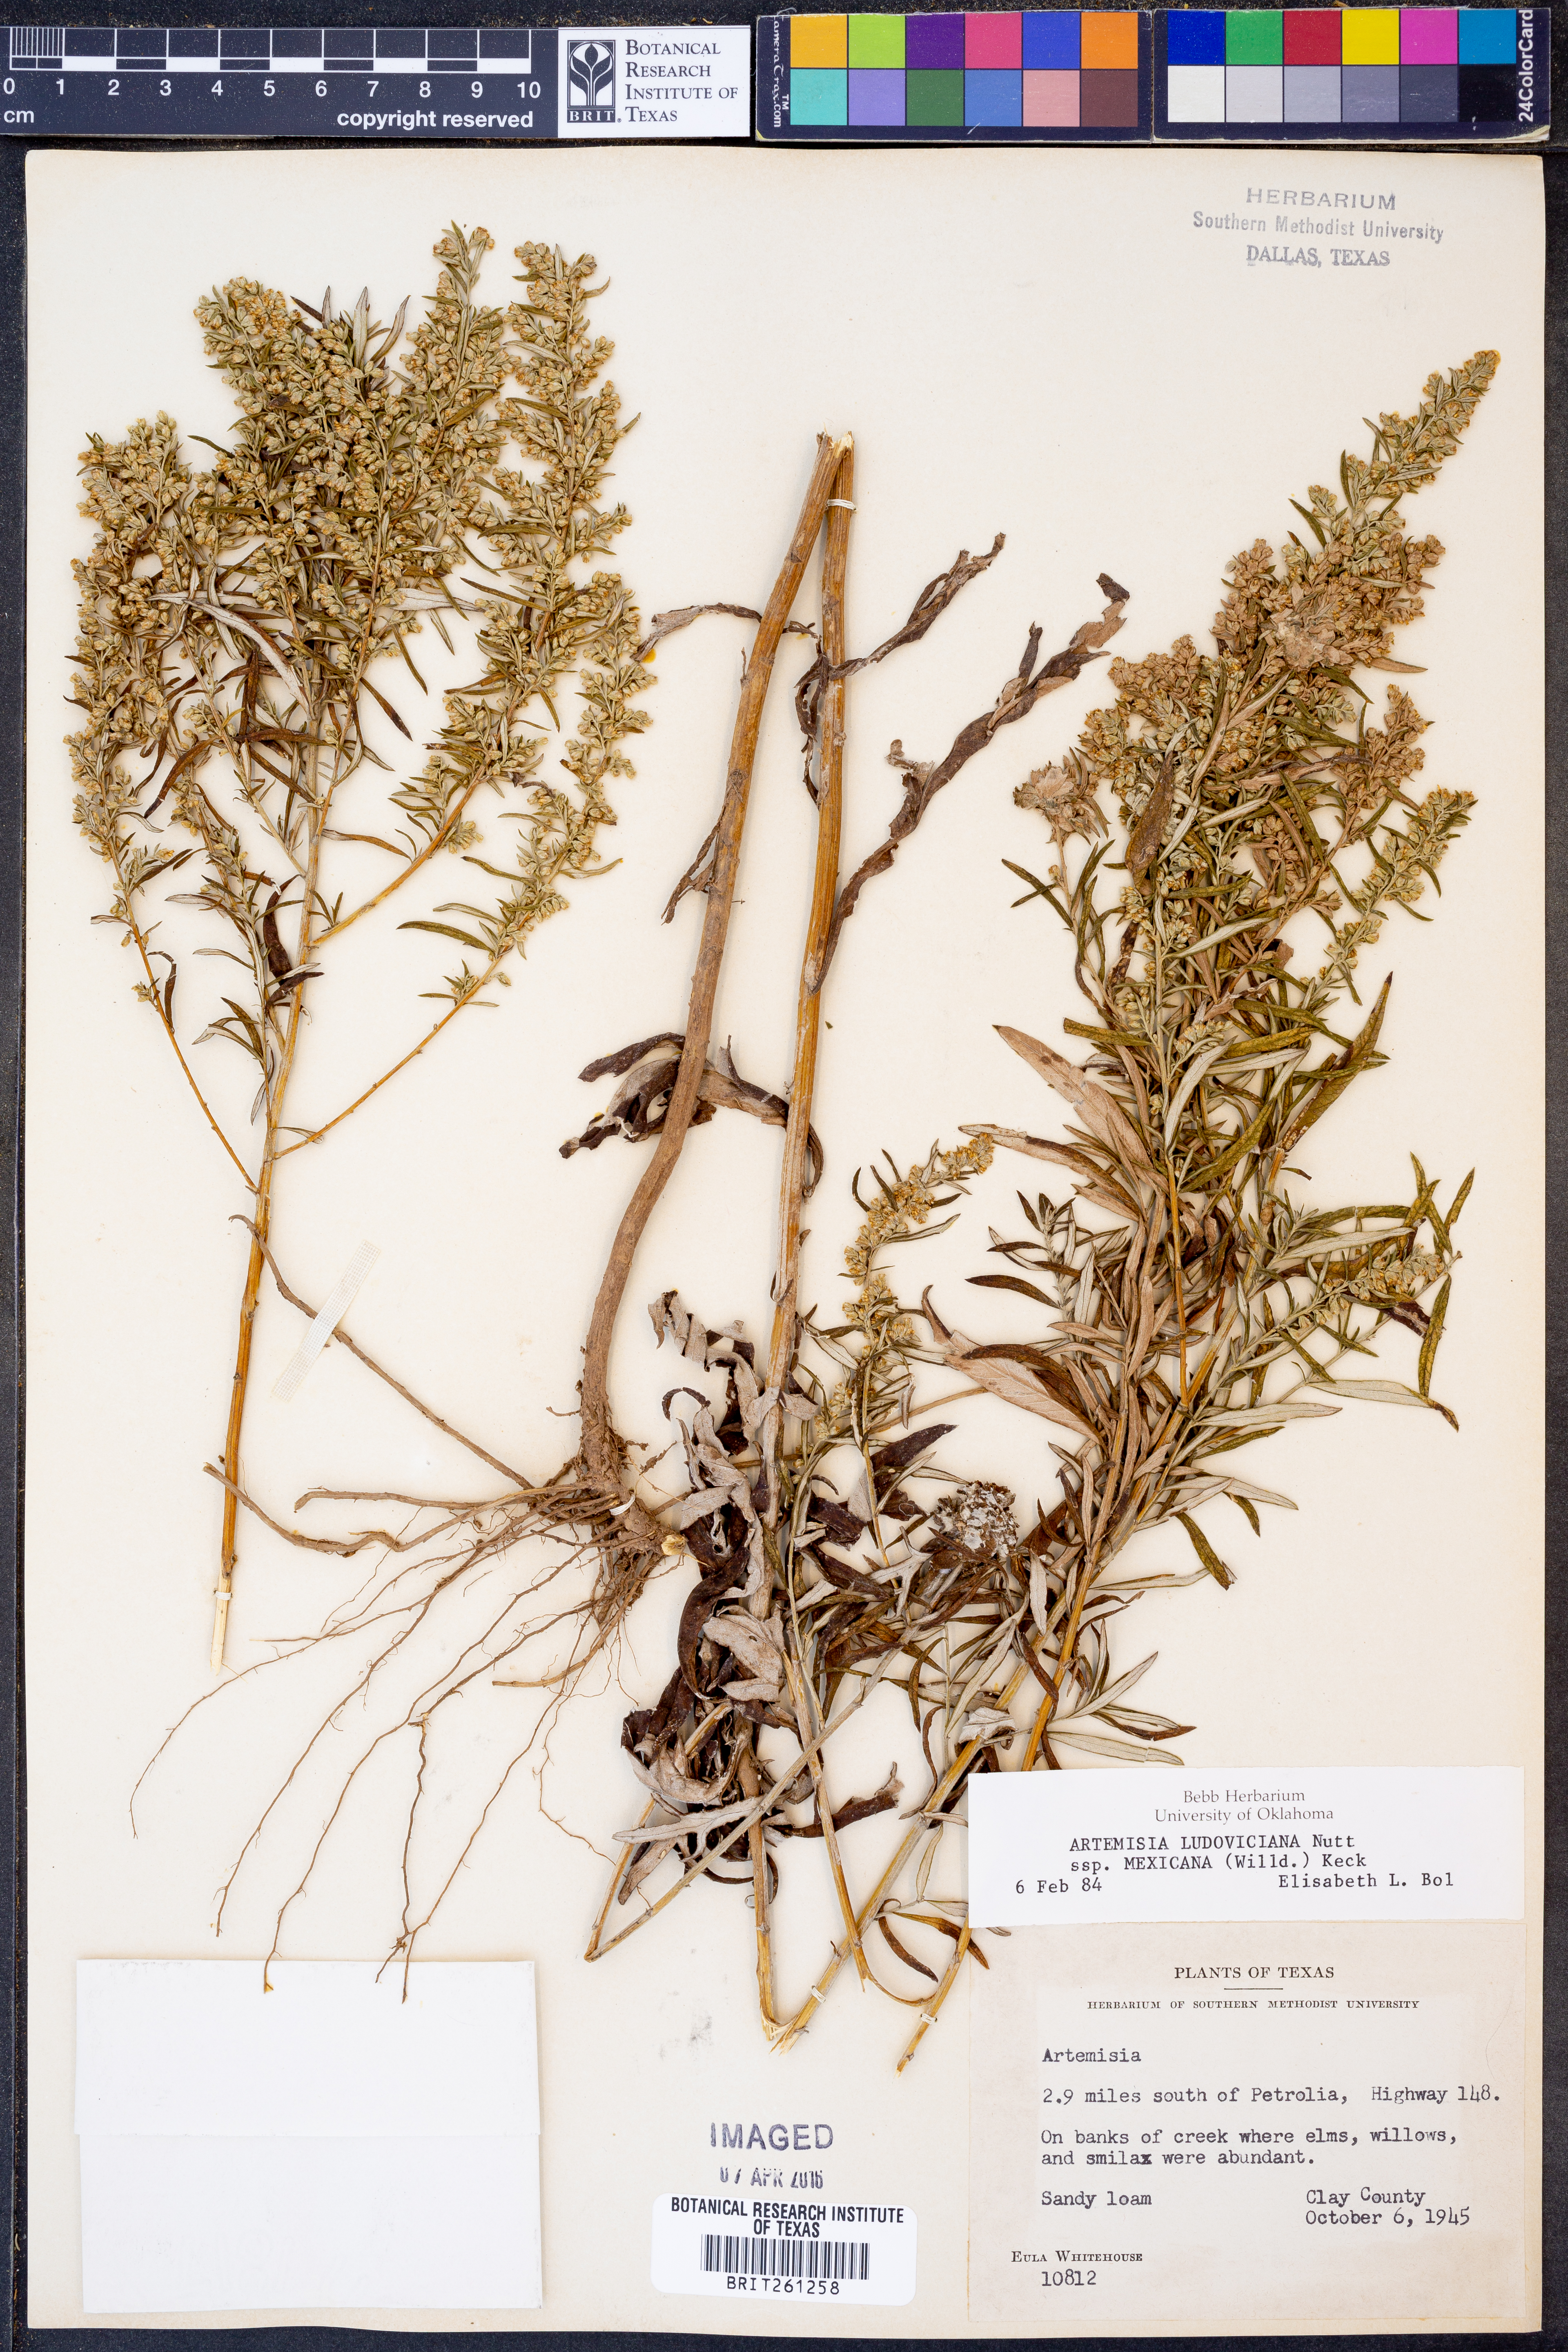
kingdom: Plantae
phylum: Tracheophyta
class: Magnoliopsida
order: Asterales
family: Asteraceae
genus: Artemisia
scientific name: Artemisia ludoviciana
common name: Western mugwort
